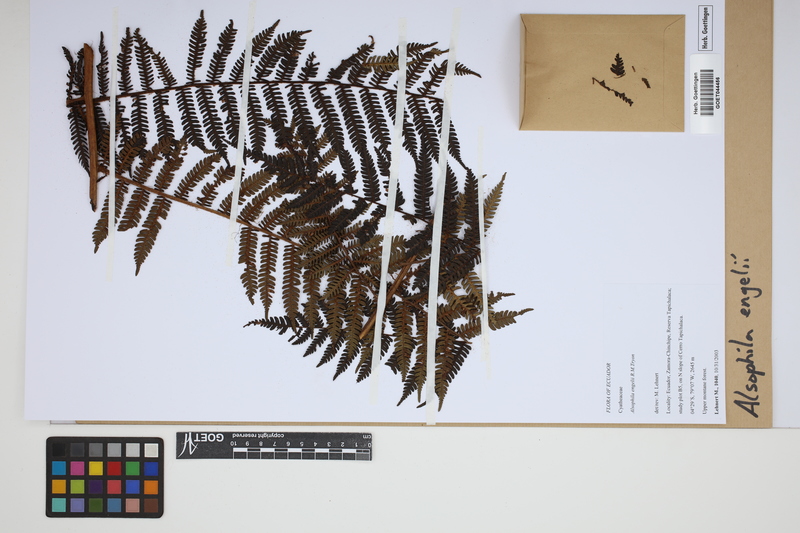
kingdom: Plantae
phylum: Tracheophyta
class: Polypodiopsida
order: Cyatheales
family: Cyatheaceae
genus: Alsophila
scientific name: Alsophila engelii
